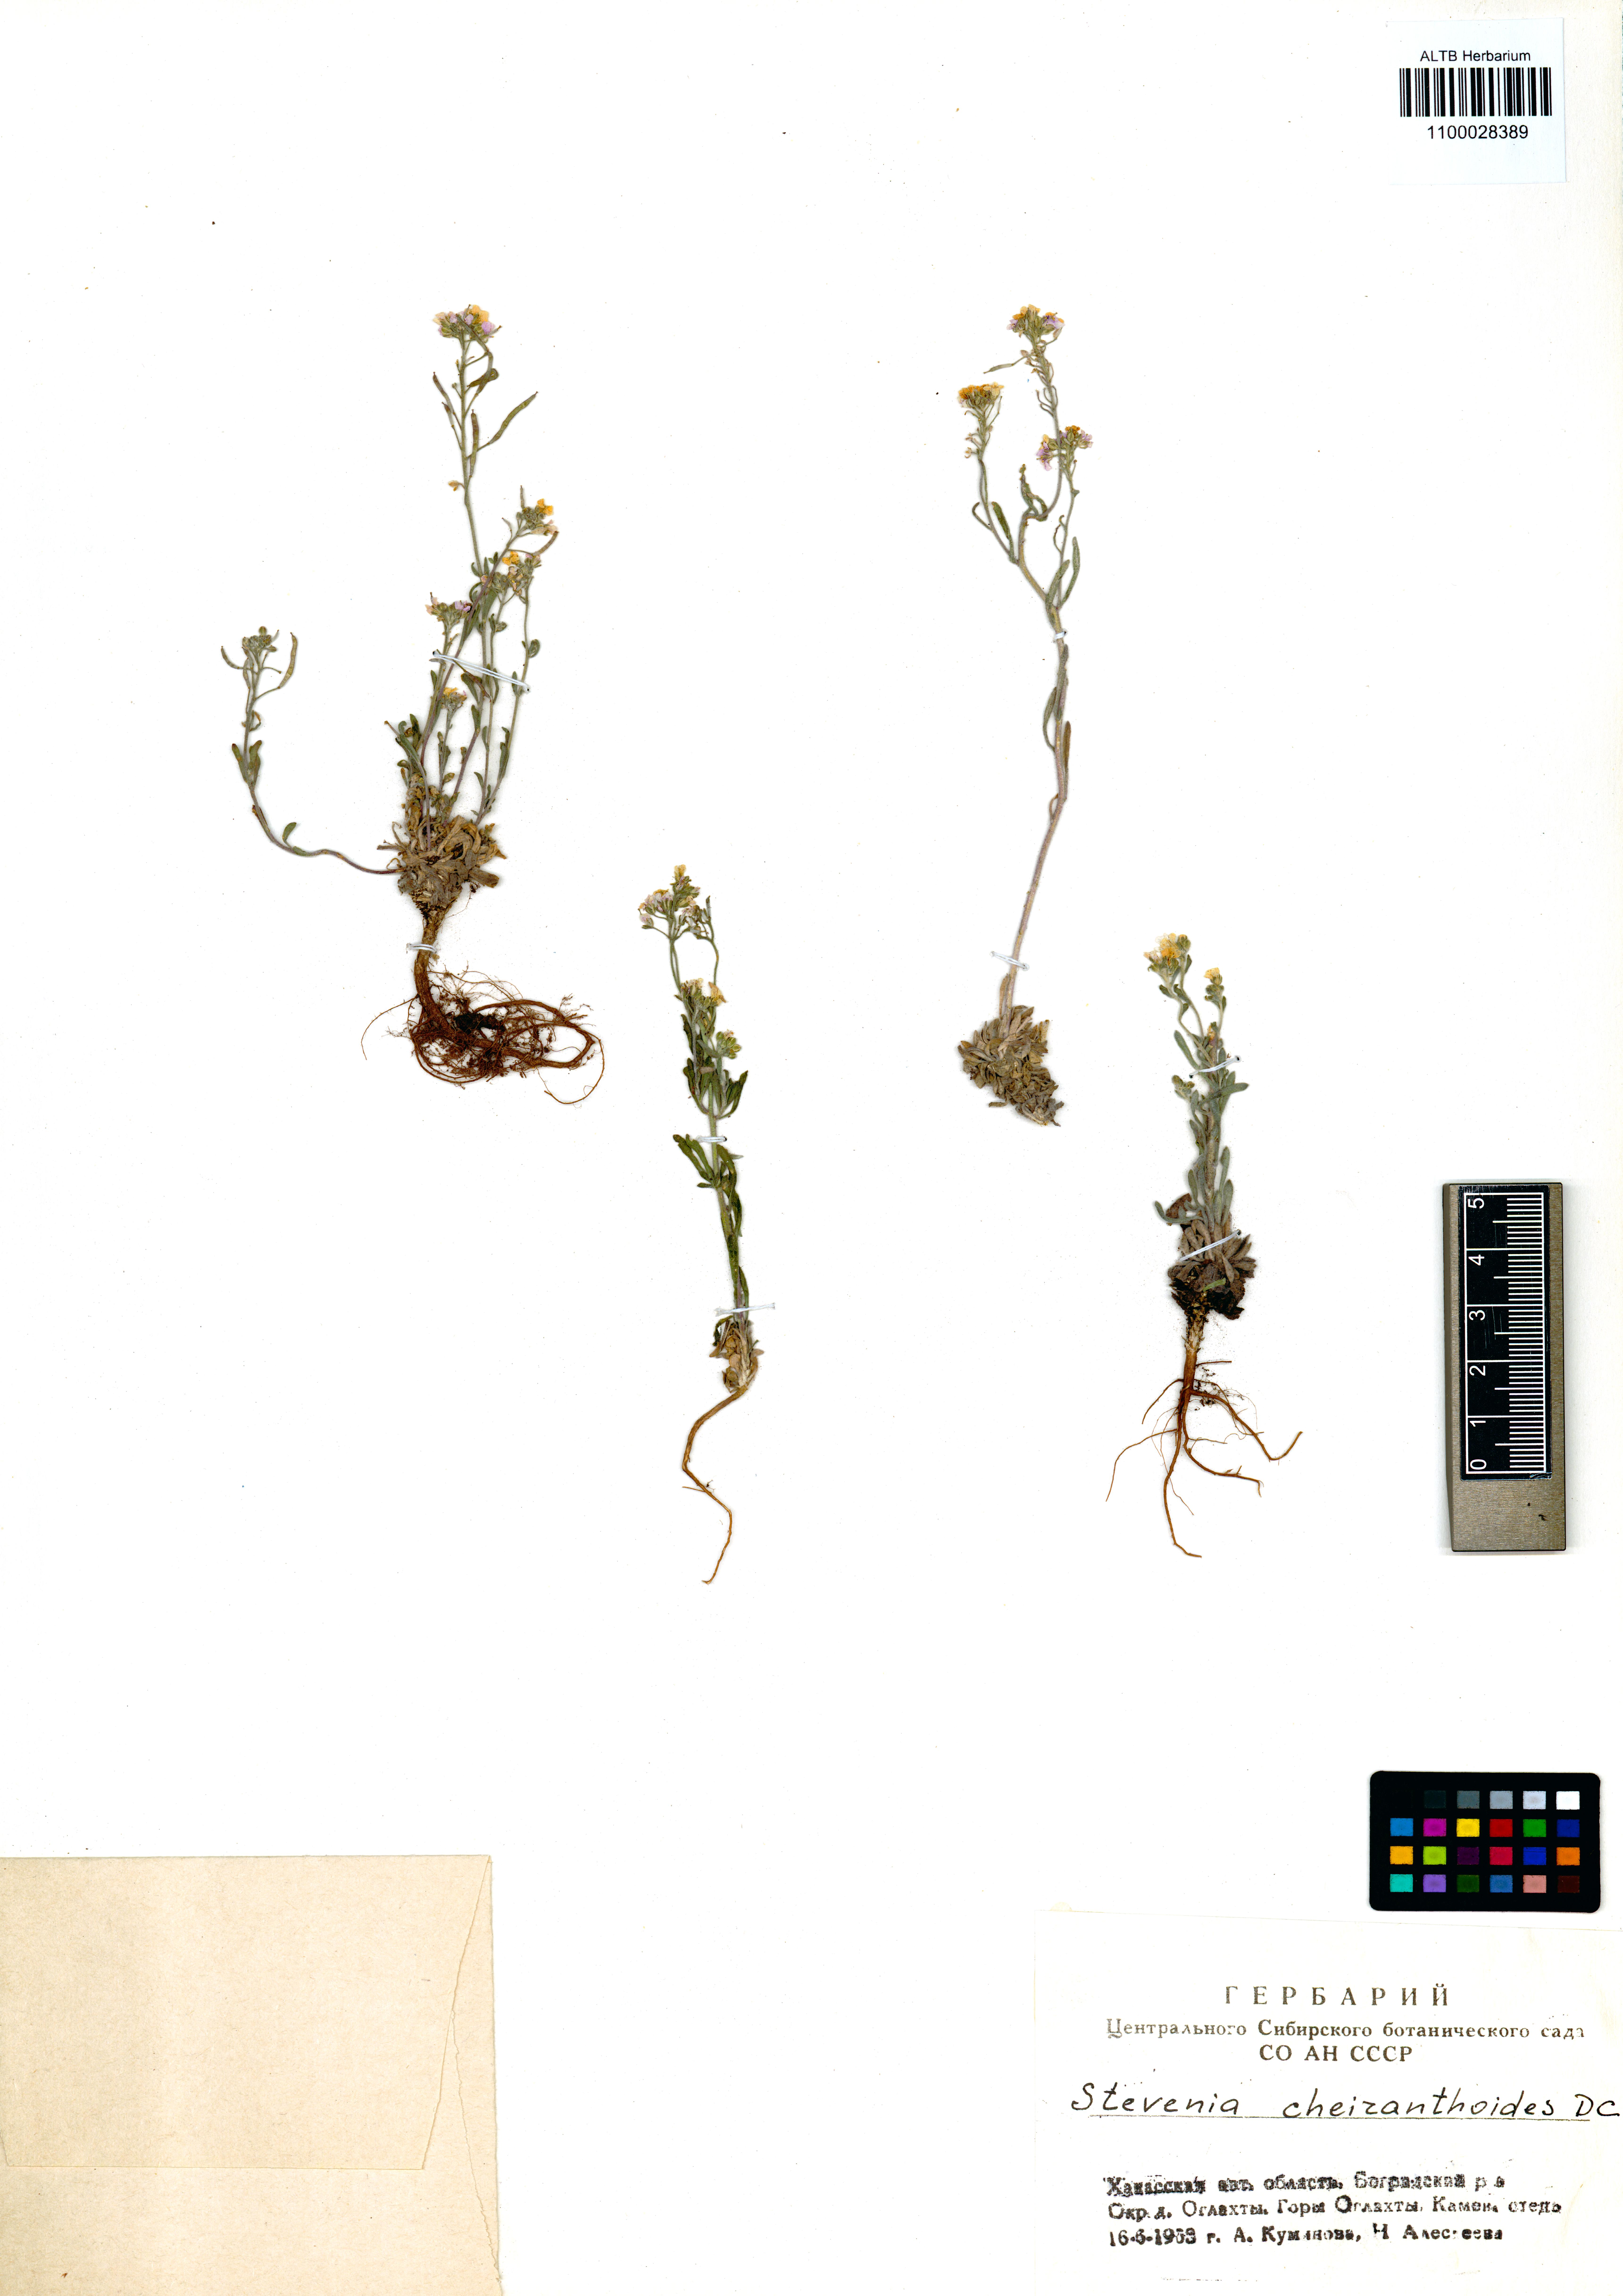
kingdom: Plantae
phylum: Tracheophyta
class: Magnoliopsida
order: Brassicales
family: Brassicaceae
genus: Stevenia
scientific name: Stevenia incarnata
